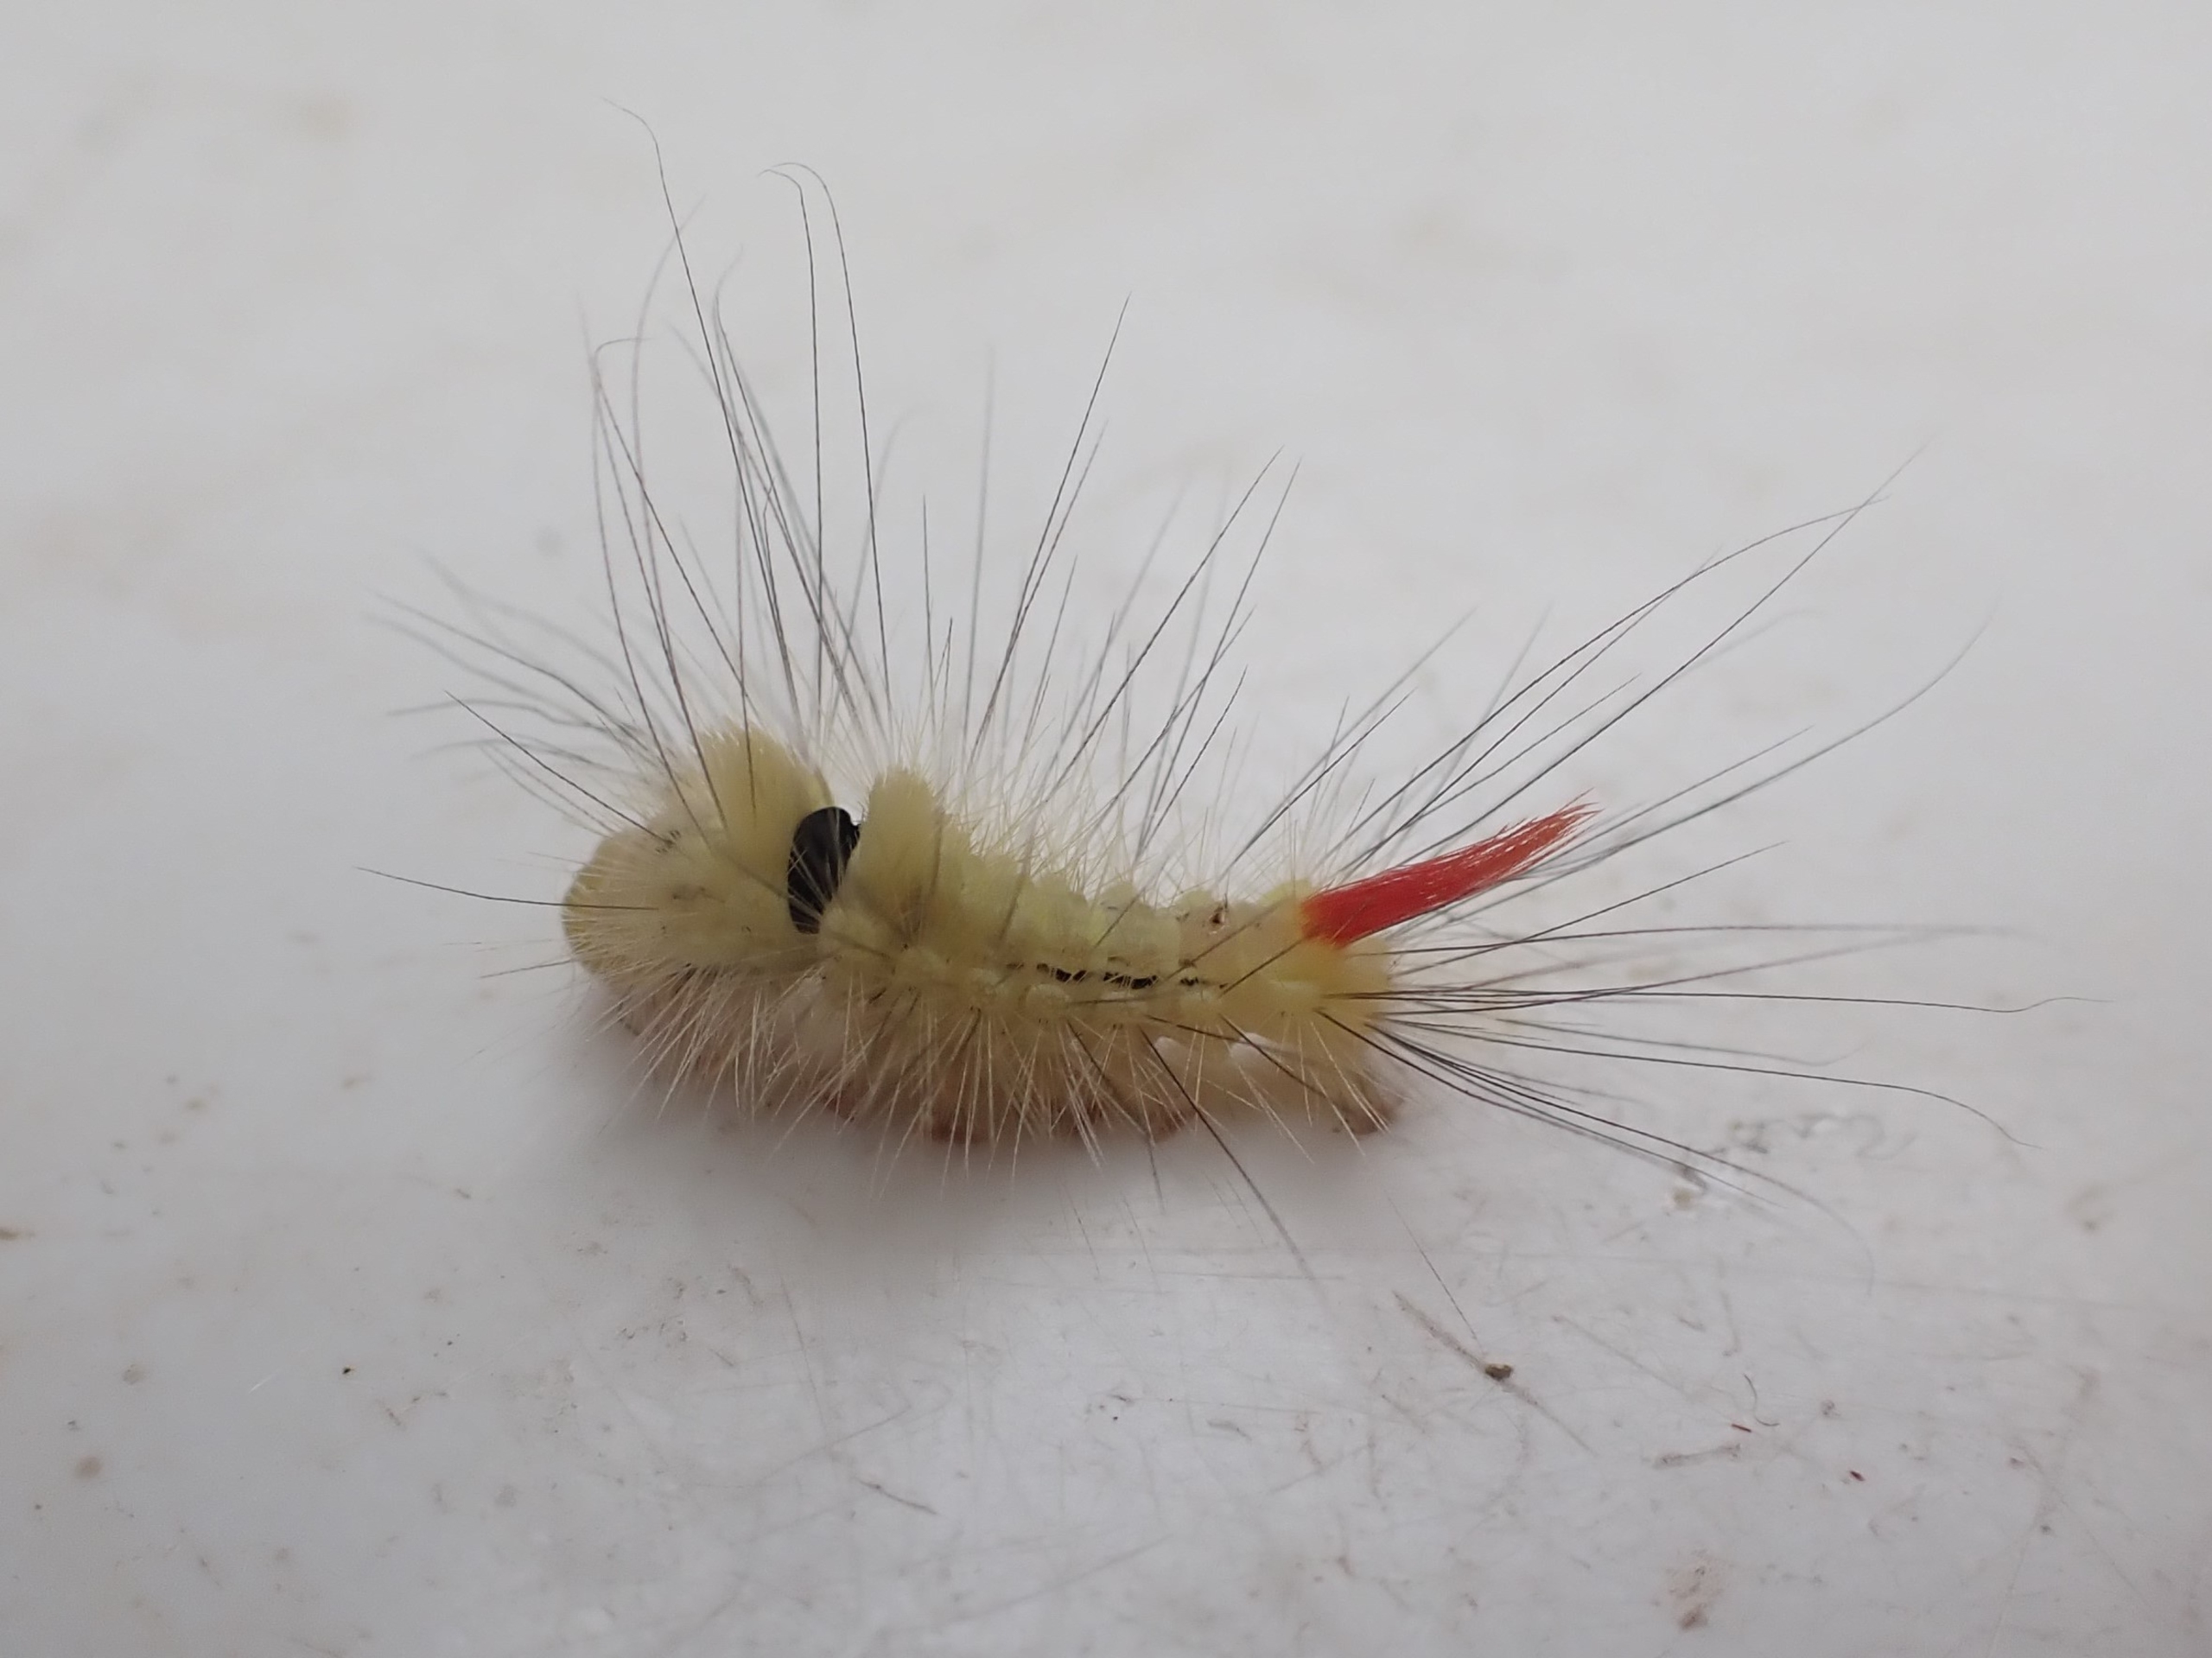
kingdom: Animalia
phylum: Arthropoda
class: Insecta
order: Lepidoptera
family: Erebidae
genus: Calliteara
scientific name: Calliteara pudibunda
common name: Bøgenonne
